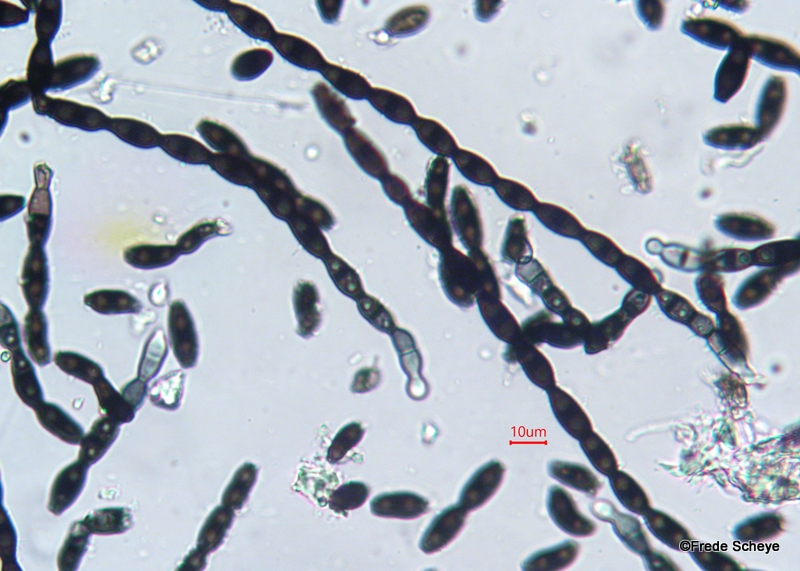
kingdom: Fungi
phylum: Ascomycota
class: Leotiomycetes
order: Helotiales
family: Helotiaceae
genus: Bispora
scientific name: Bispora pallescens
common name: måtte-snitskive
